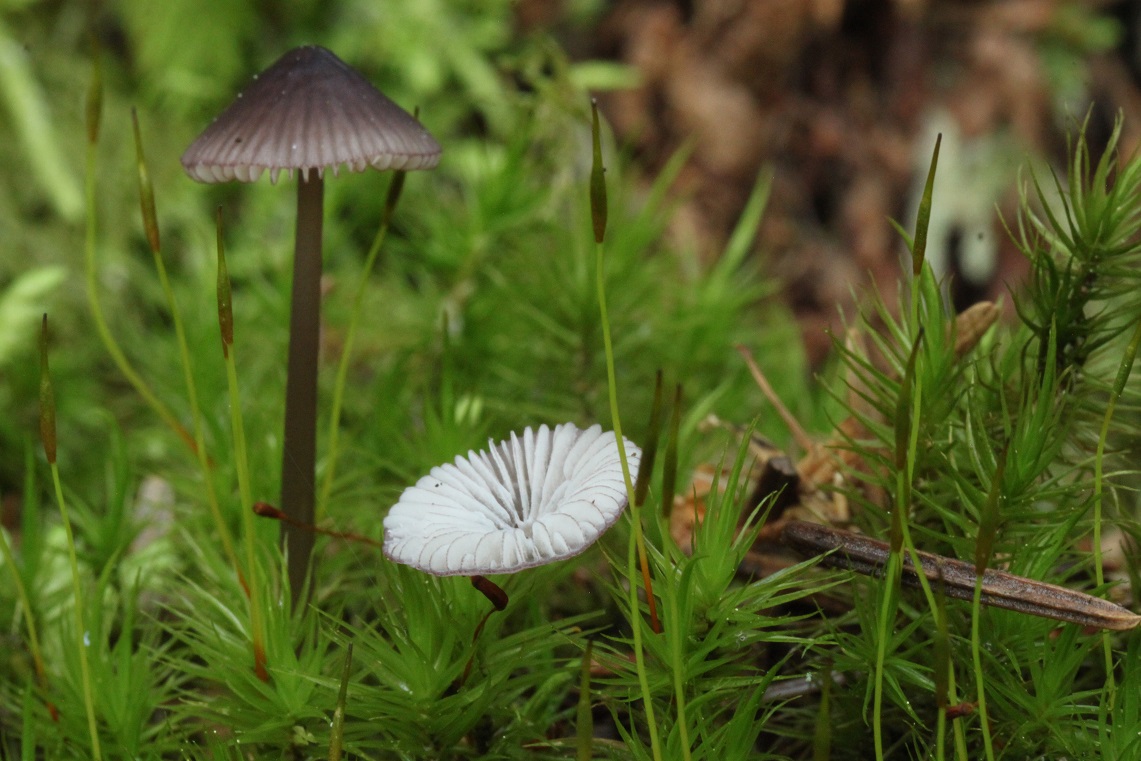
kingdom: Fungi
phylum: Basidiomycota
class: Agaricomycetes
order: Agaricales
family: Mycenaceae
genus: Mycena
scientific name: Mycena purpureofusca
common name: purpur-huesvamp
